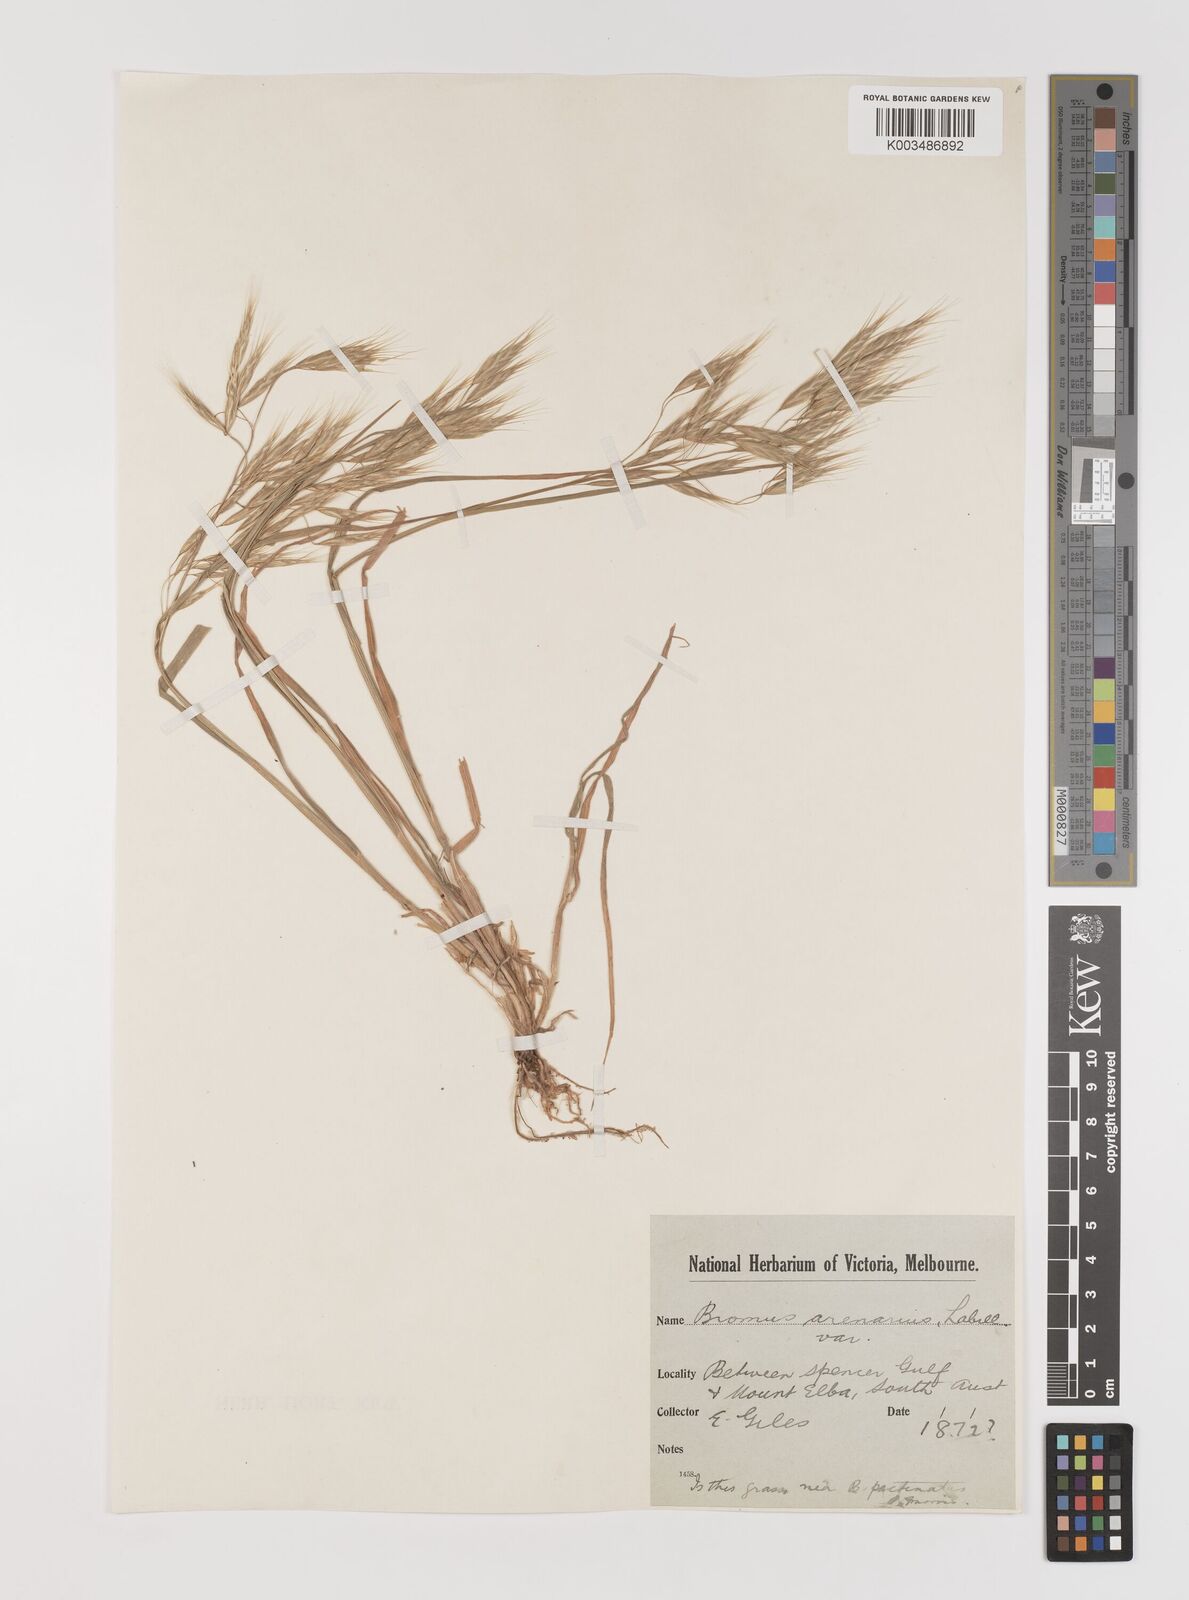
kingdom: Plantae
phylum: Tracheophyta
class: Liliopsida
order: Poales
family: Poaceae
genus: Bromus
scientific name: Bromus arenarius
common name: Australian brome
